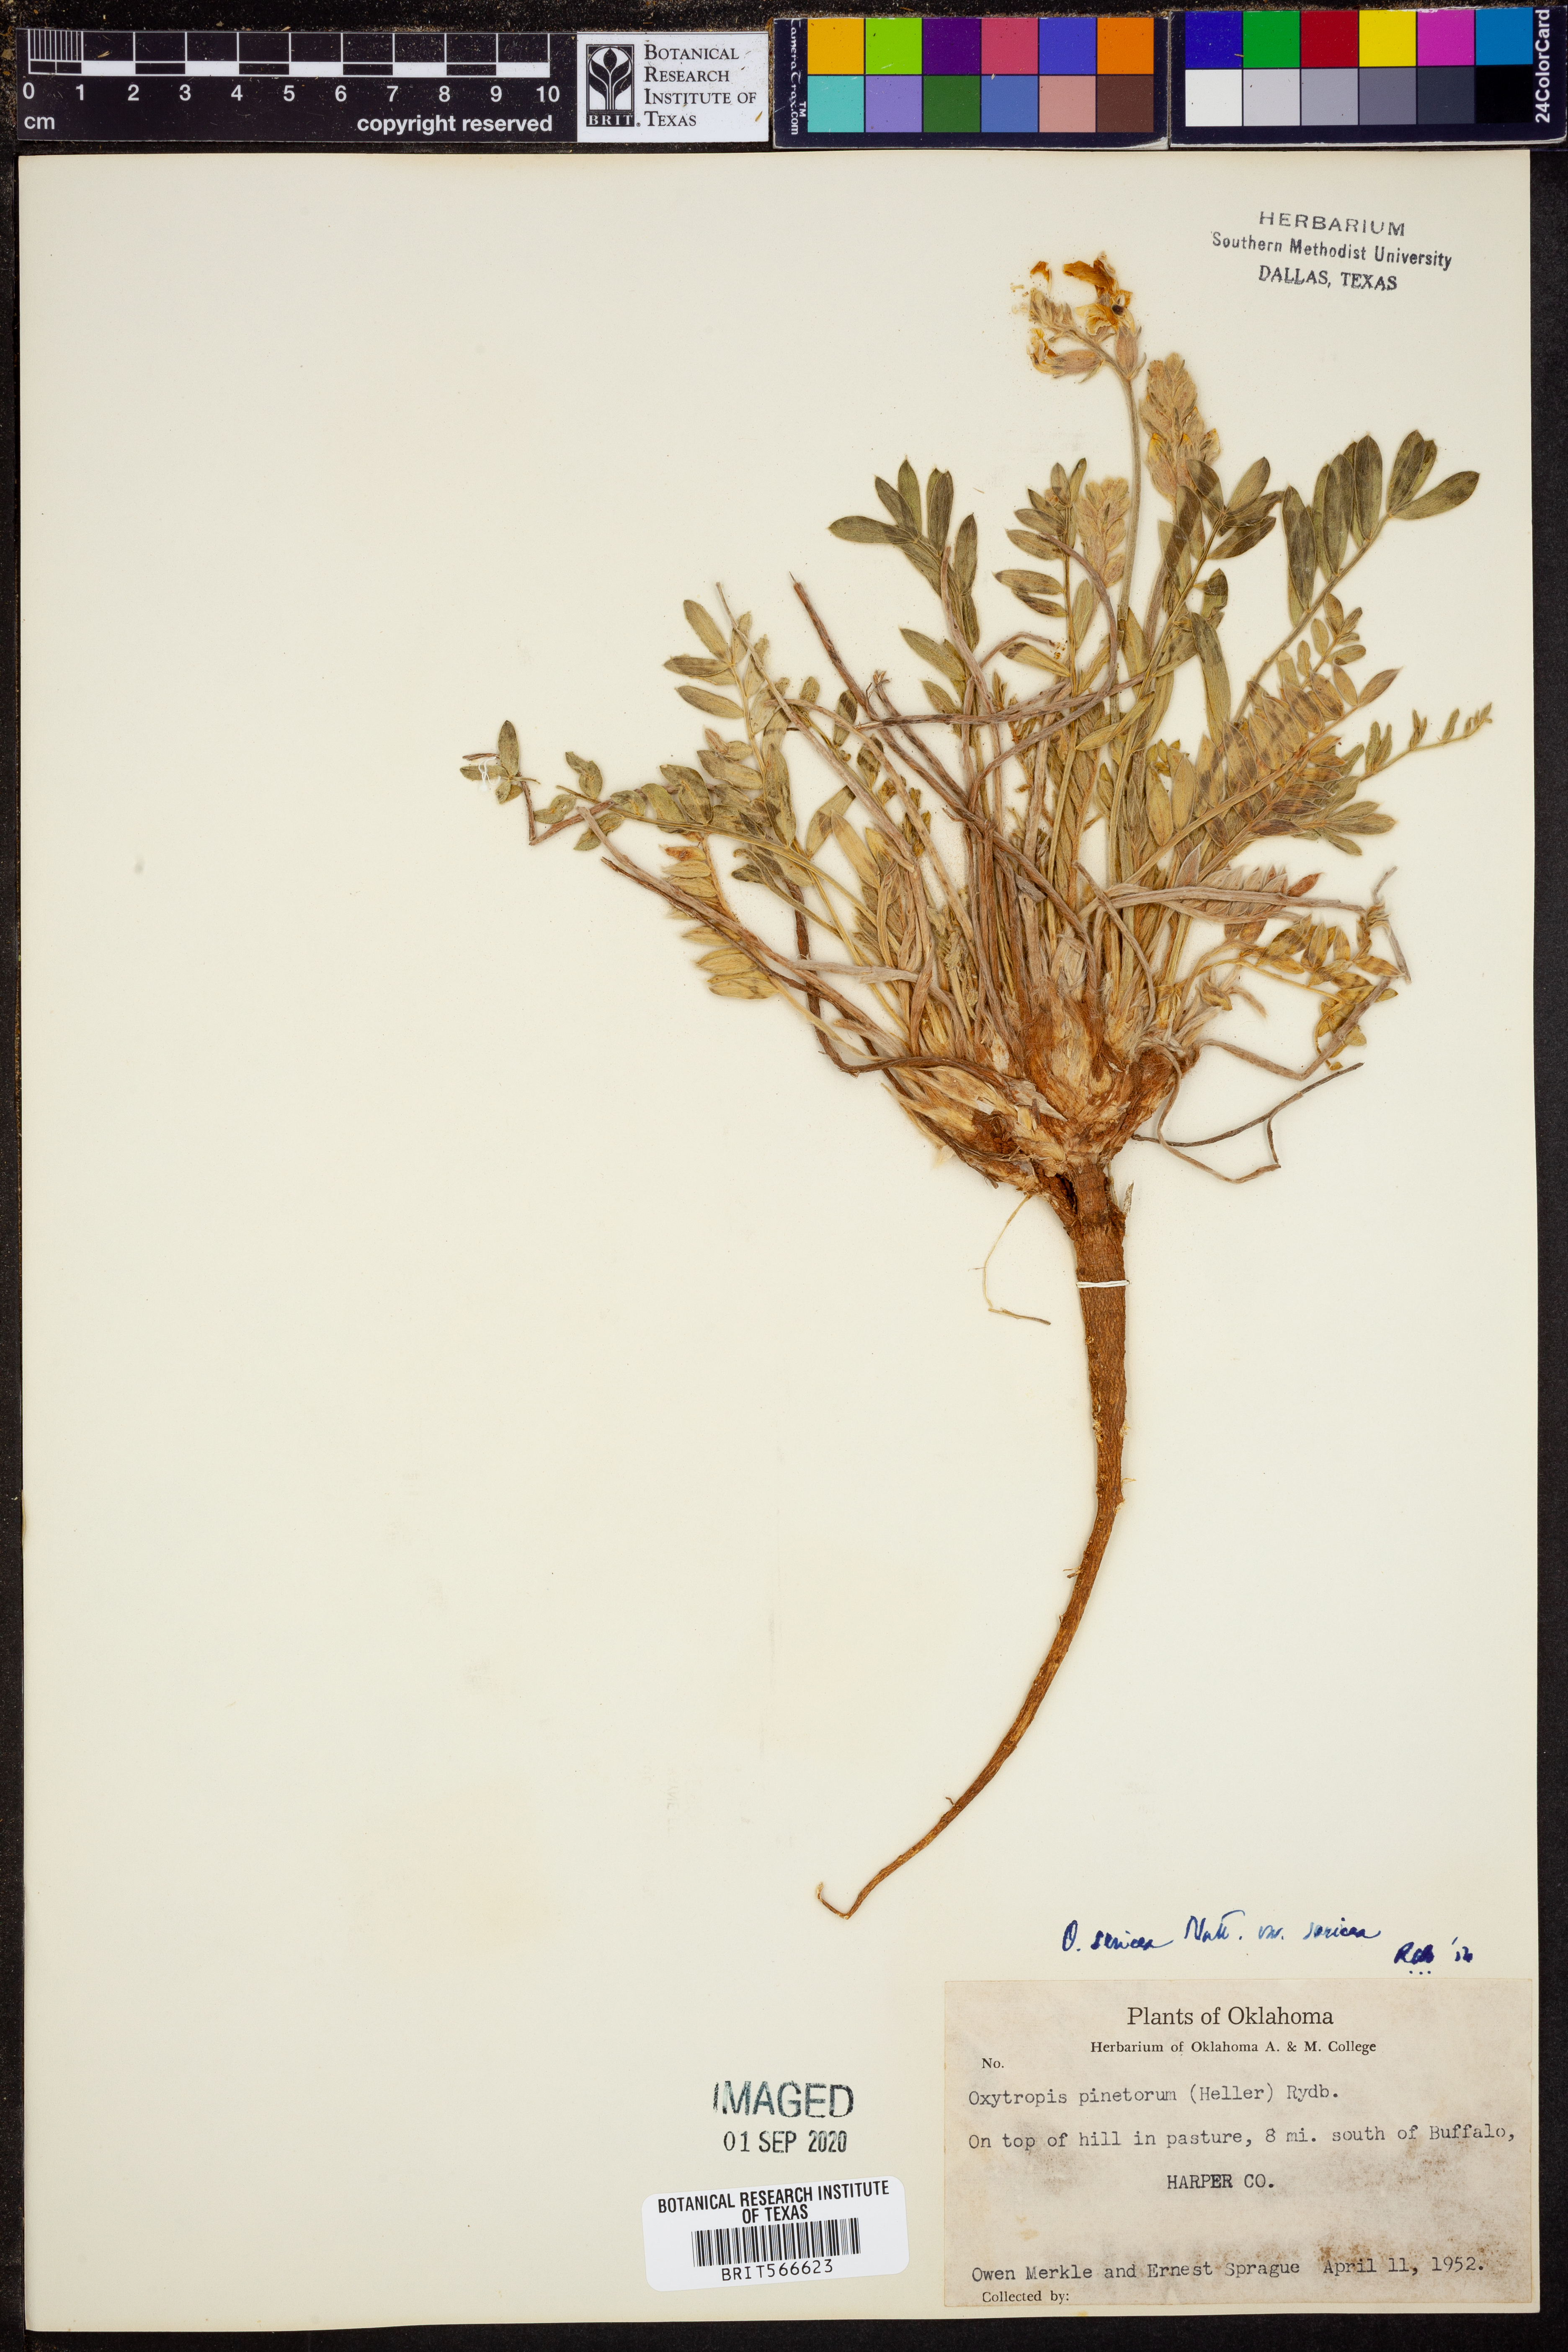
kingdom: Plantae
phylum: Tracheophyta
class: Magnoliopsida
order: Fabales
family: Fabaceae
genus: Oxytropis
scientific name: Oxytropis sericea
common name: Silky locoweed
